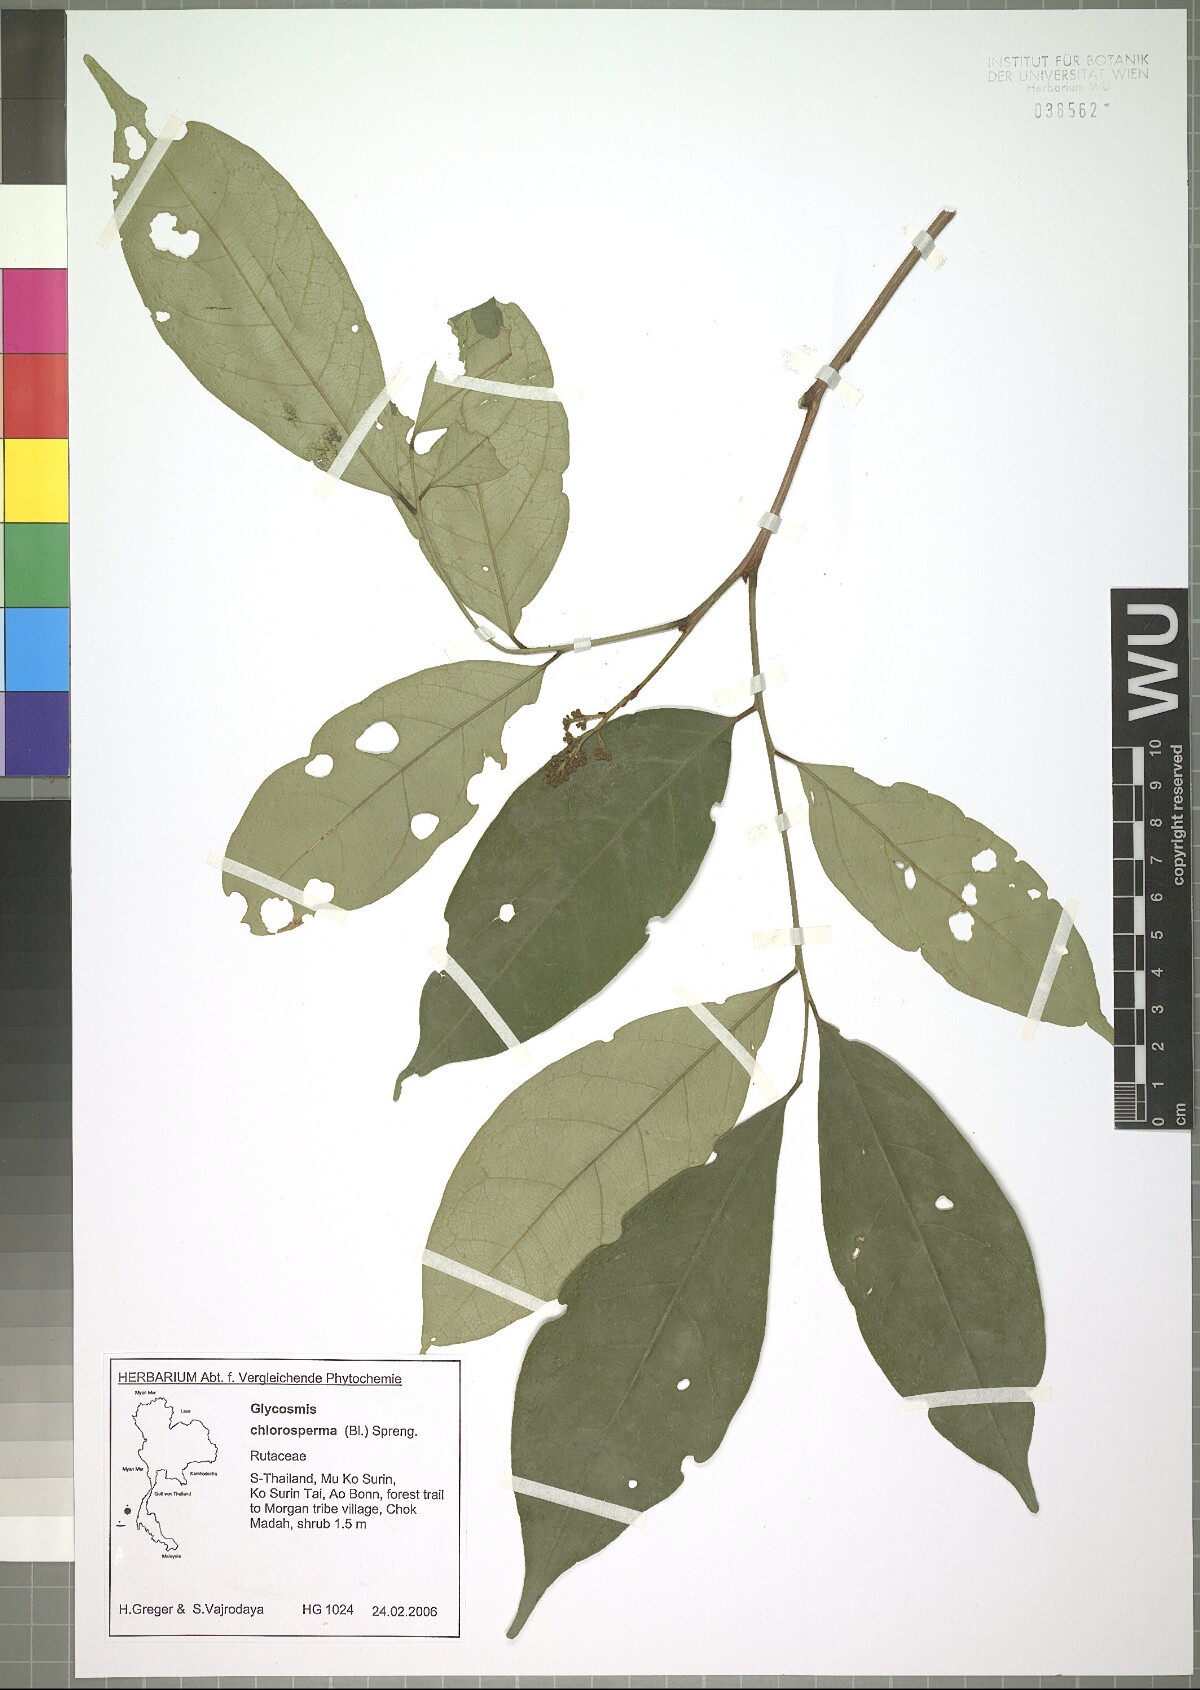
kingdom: Plantae
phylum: Tracheophyta
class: Magnoliopsida
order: Sapindales
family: Rutaceae
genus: Glycosmis
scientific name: Glycosmis chlorosperma
